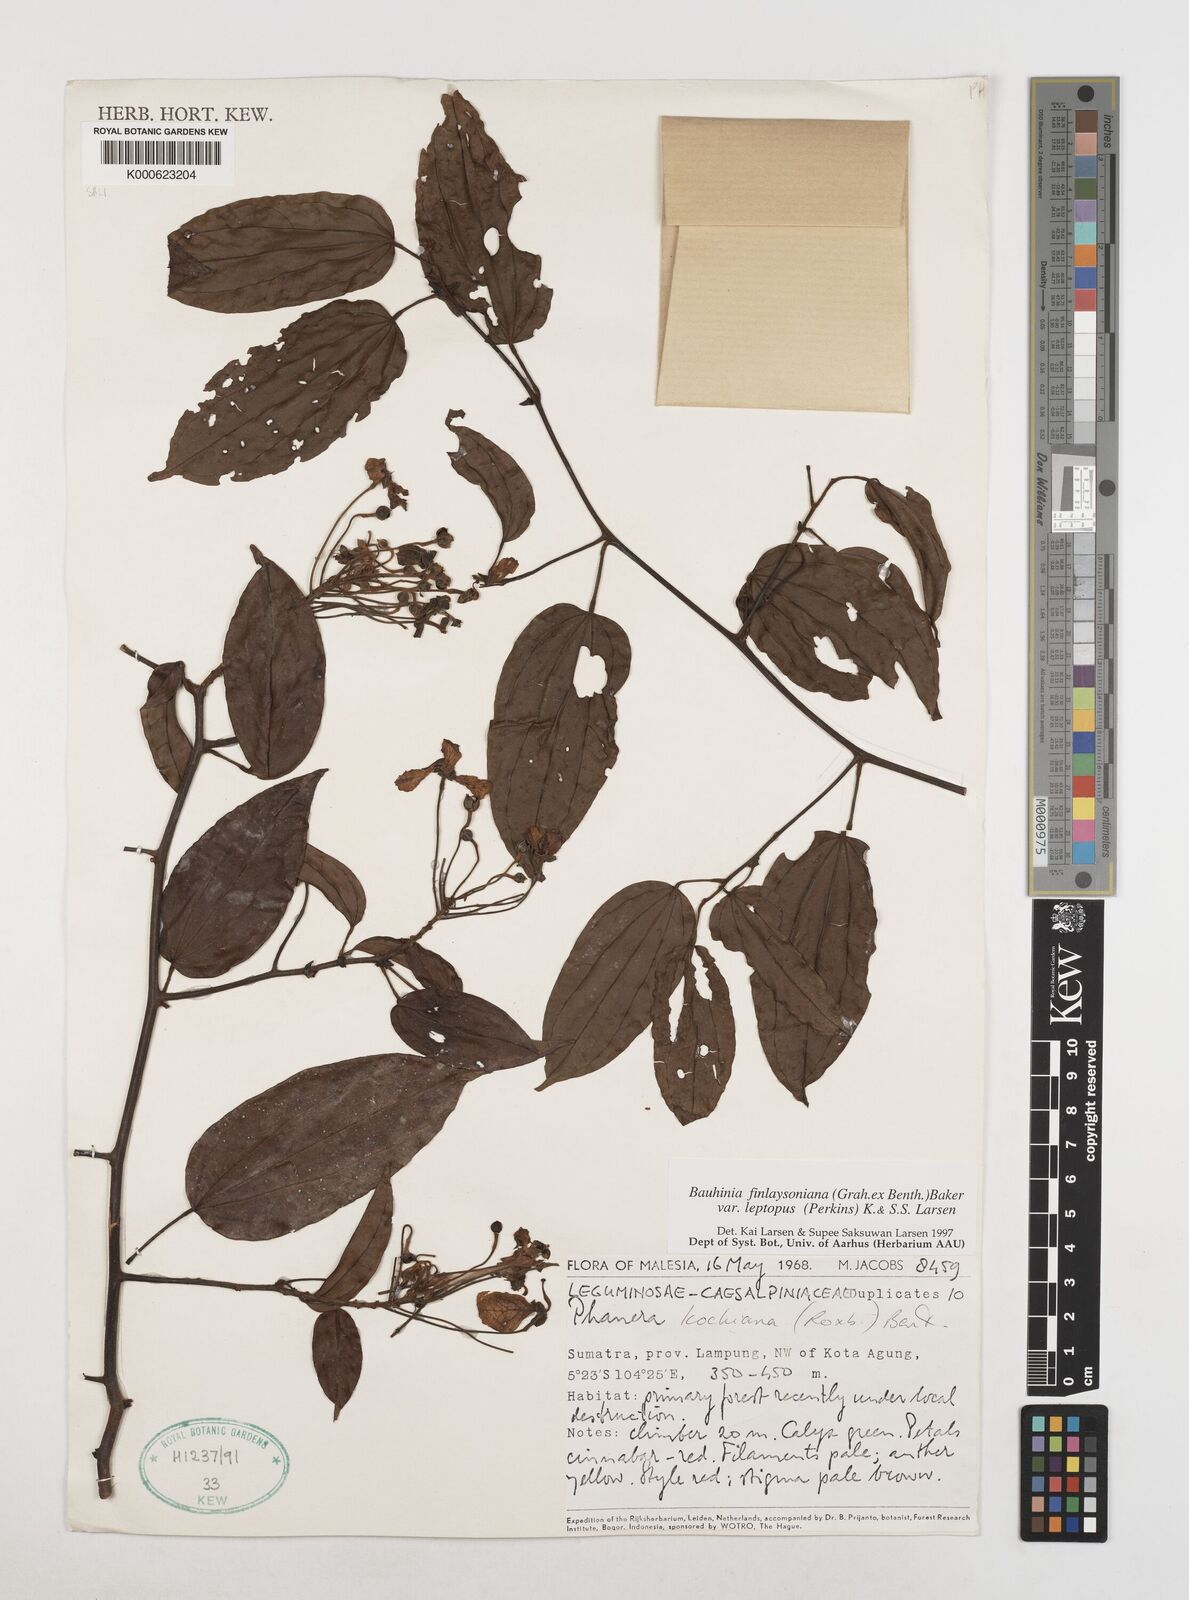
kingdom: Plantae
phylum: Tracheophyta
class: Magnoliopsida
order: Fabales
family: Fabaceae
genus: Phanera
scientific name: Phanera finlaysoniana
